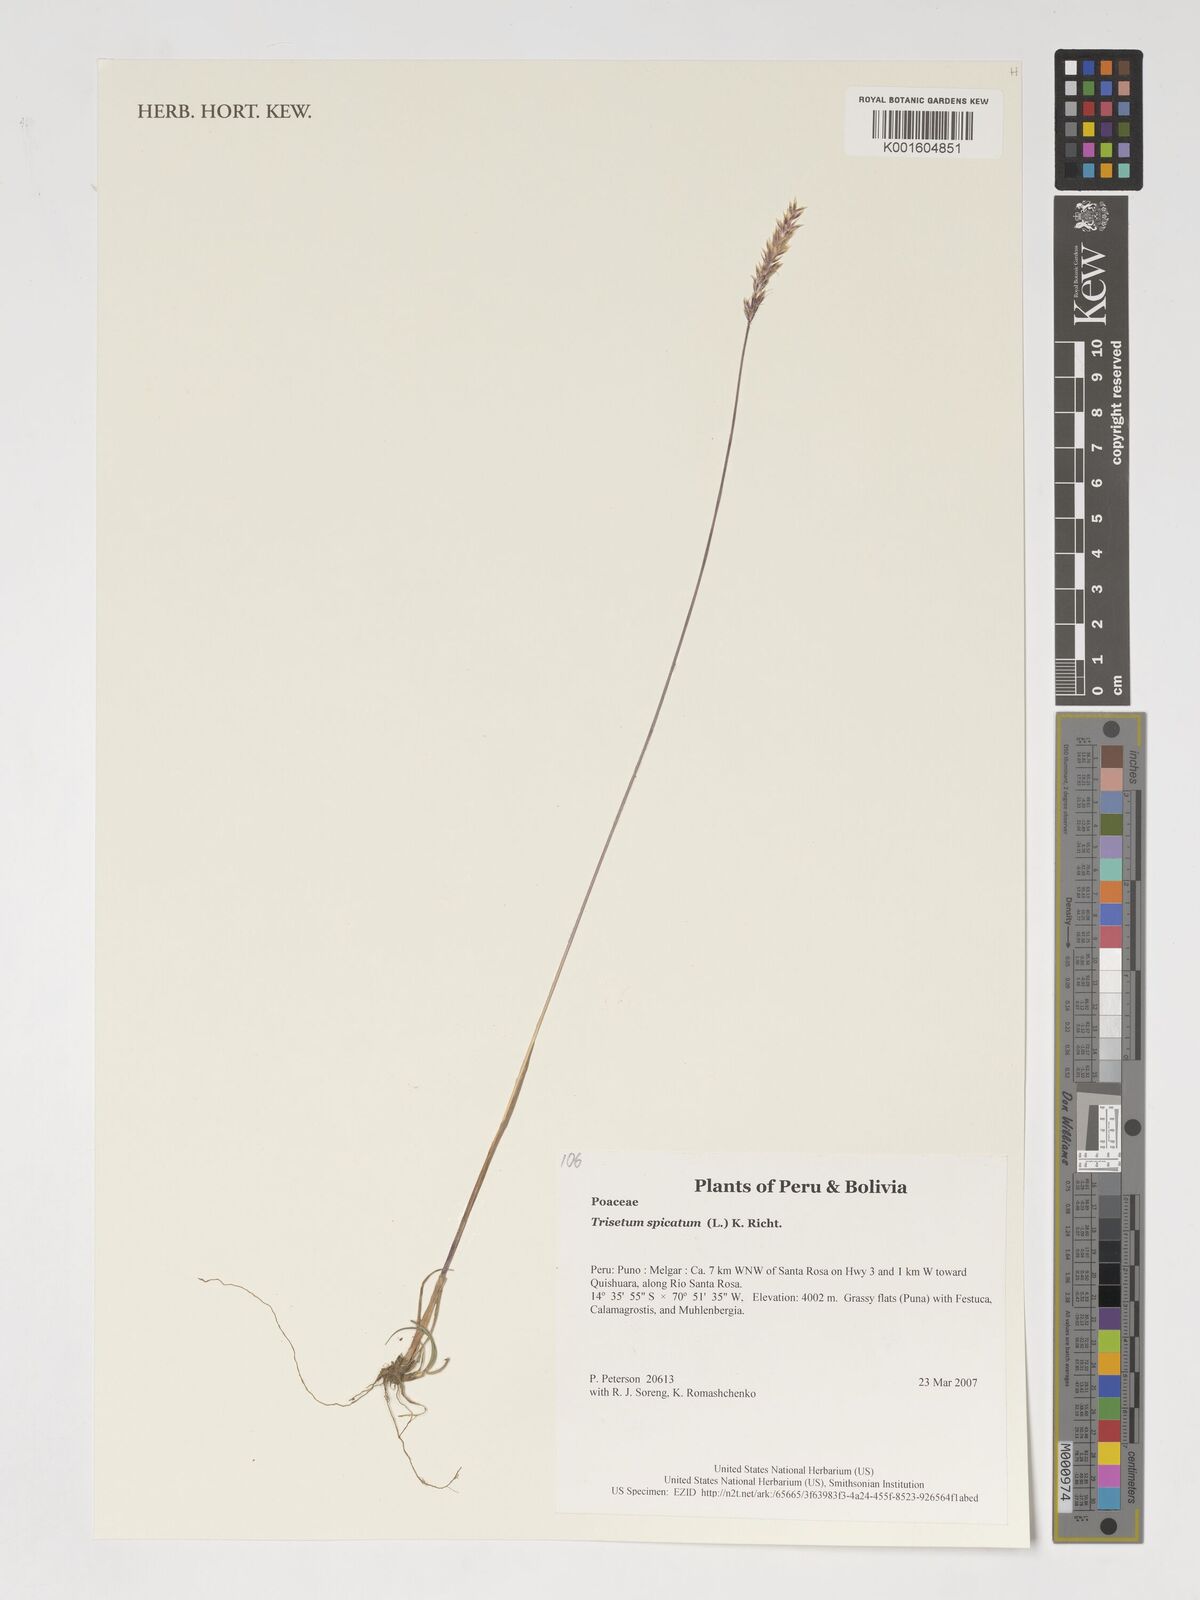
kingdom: Plantae
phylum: Tracheophyta
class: Liliopsida
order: Poales
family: Poaceae
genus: Koeleria
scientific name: Koeleria spicata
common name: Mountain trisetum
